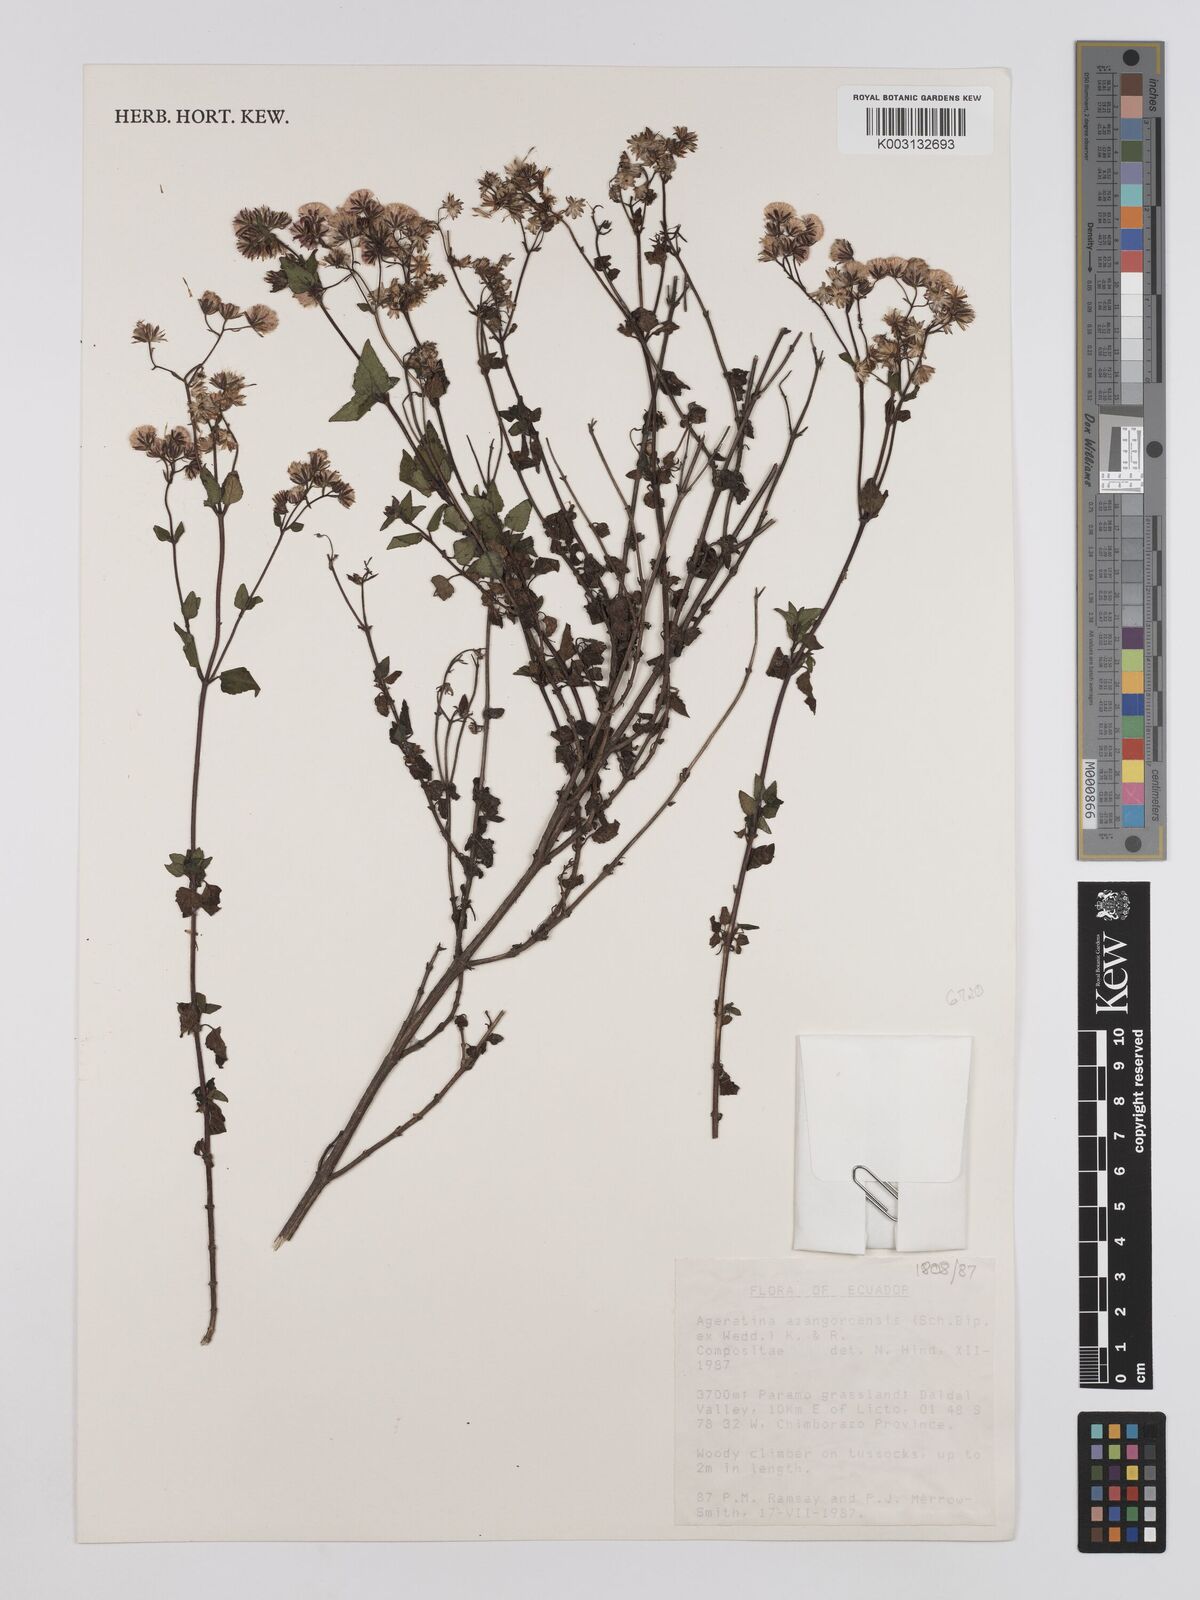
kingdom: Plantae
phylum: Tracheophyta
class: Magnoliopsida
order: Asterales
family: Asteraceae
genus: Ageratina
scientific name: Ageratina glechonophylla
